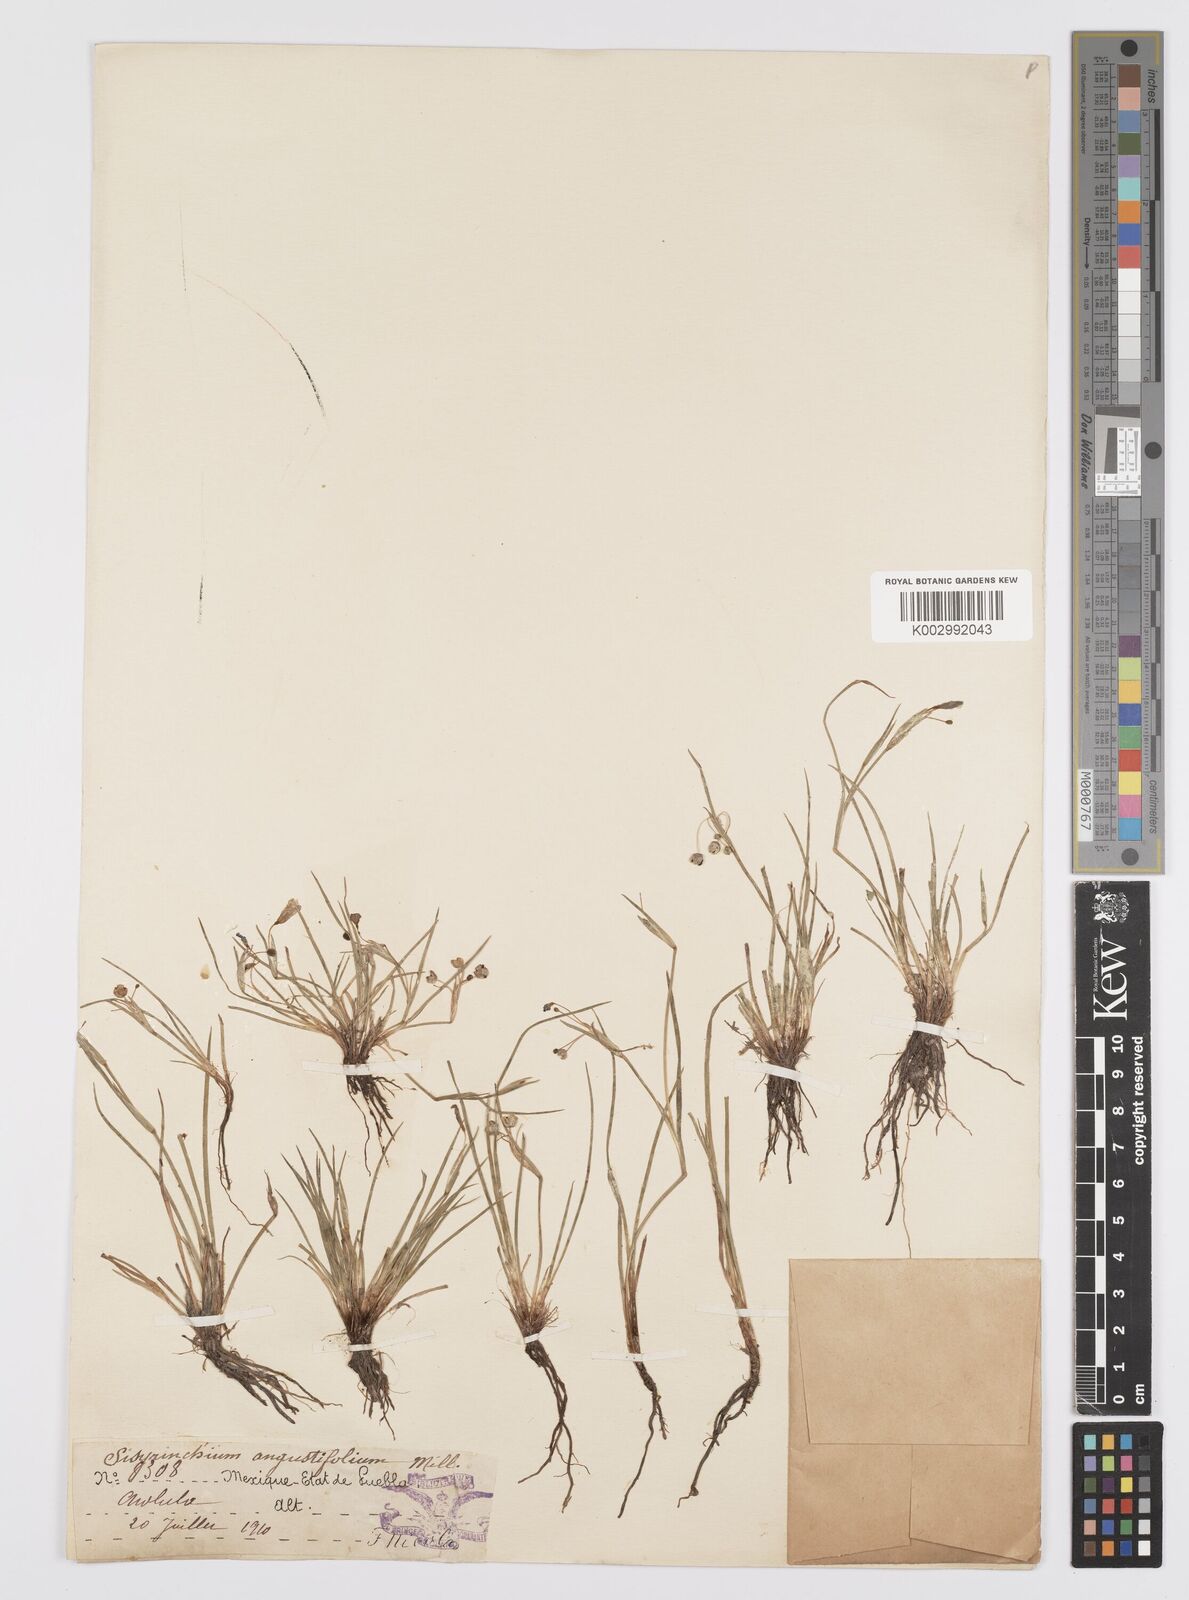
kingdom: Plantae
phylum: Tracheophyta
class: Liliopsida
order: Asparagales
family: Iridaceae
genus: Sisyrinchium
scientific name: Sisyrinchium angustifolium
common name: Narrow-leaf blue-eyed-grass
